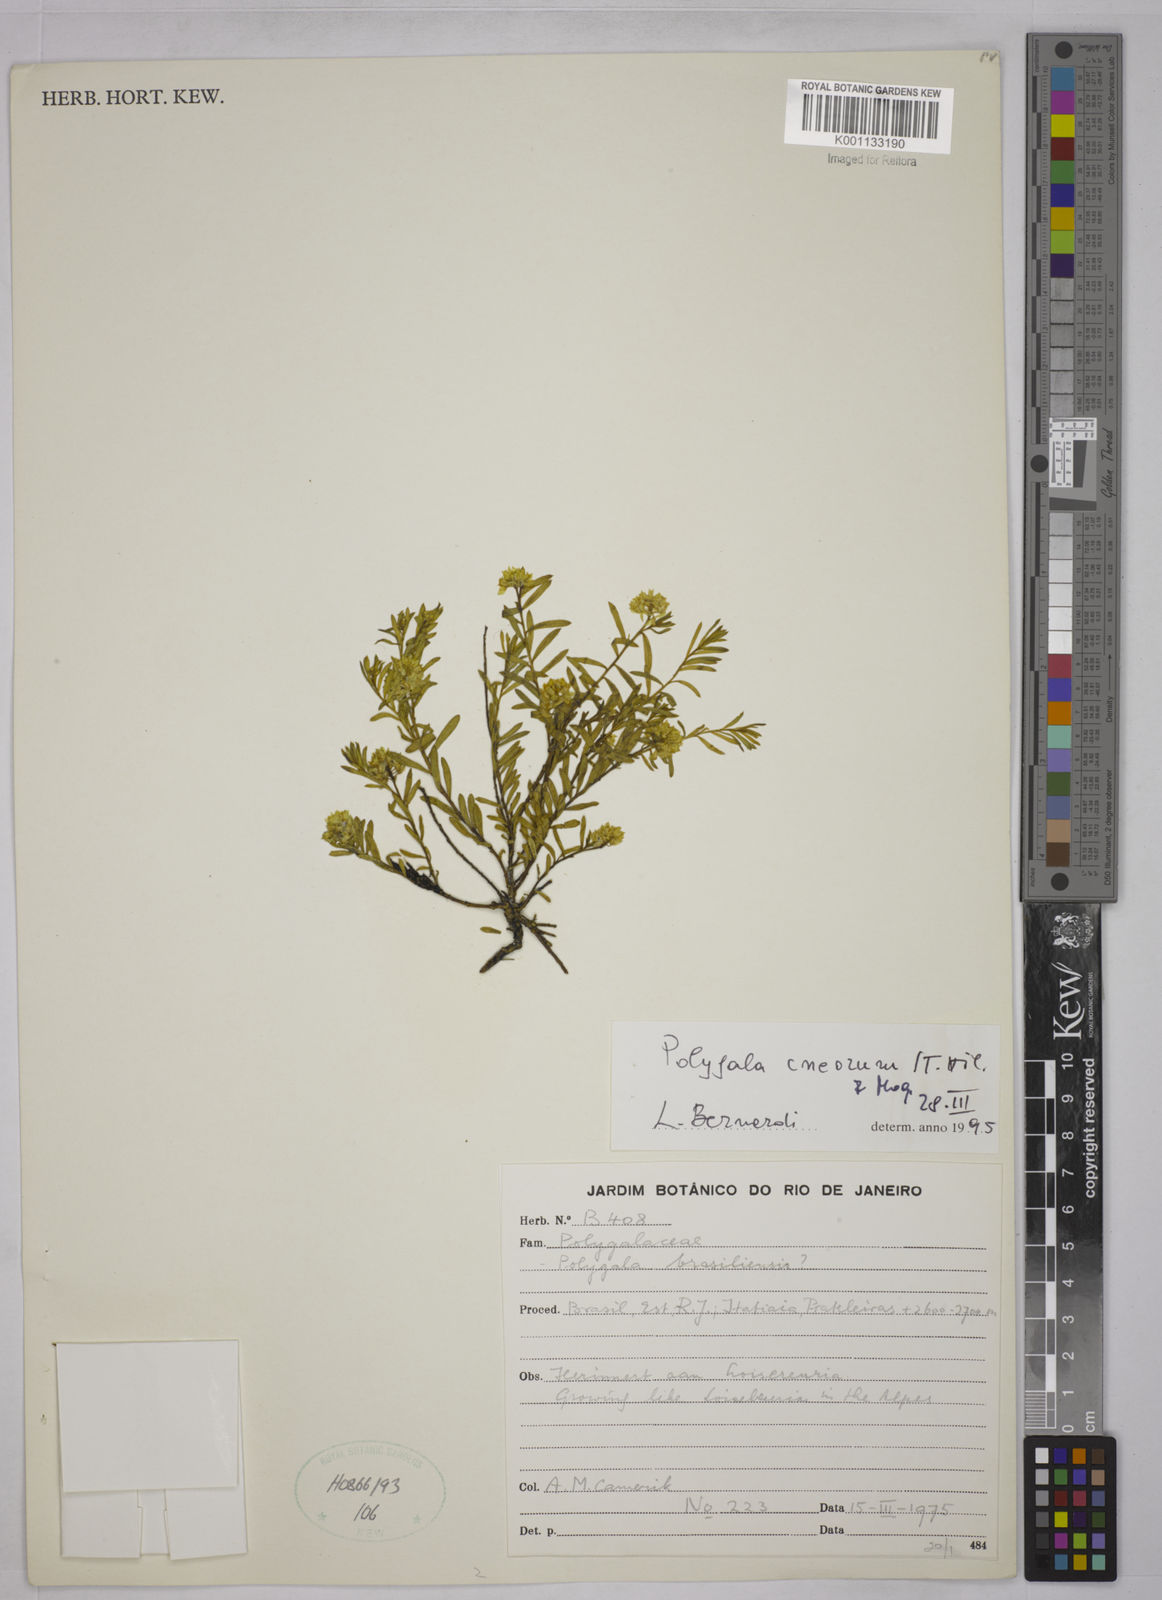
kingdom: Plantae
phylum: Tracheophyta
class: Magnoliopsida
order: Fabales
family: Polygalaceae
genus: Polygala
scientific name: Polygala cneorum
